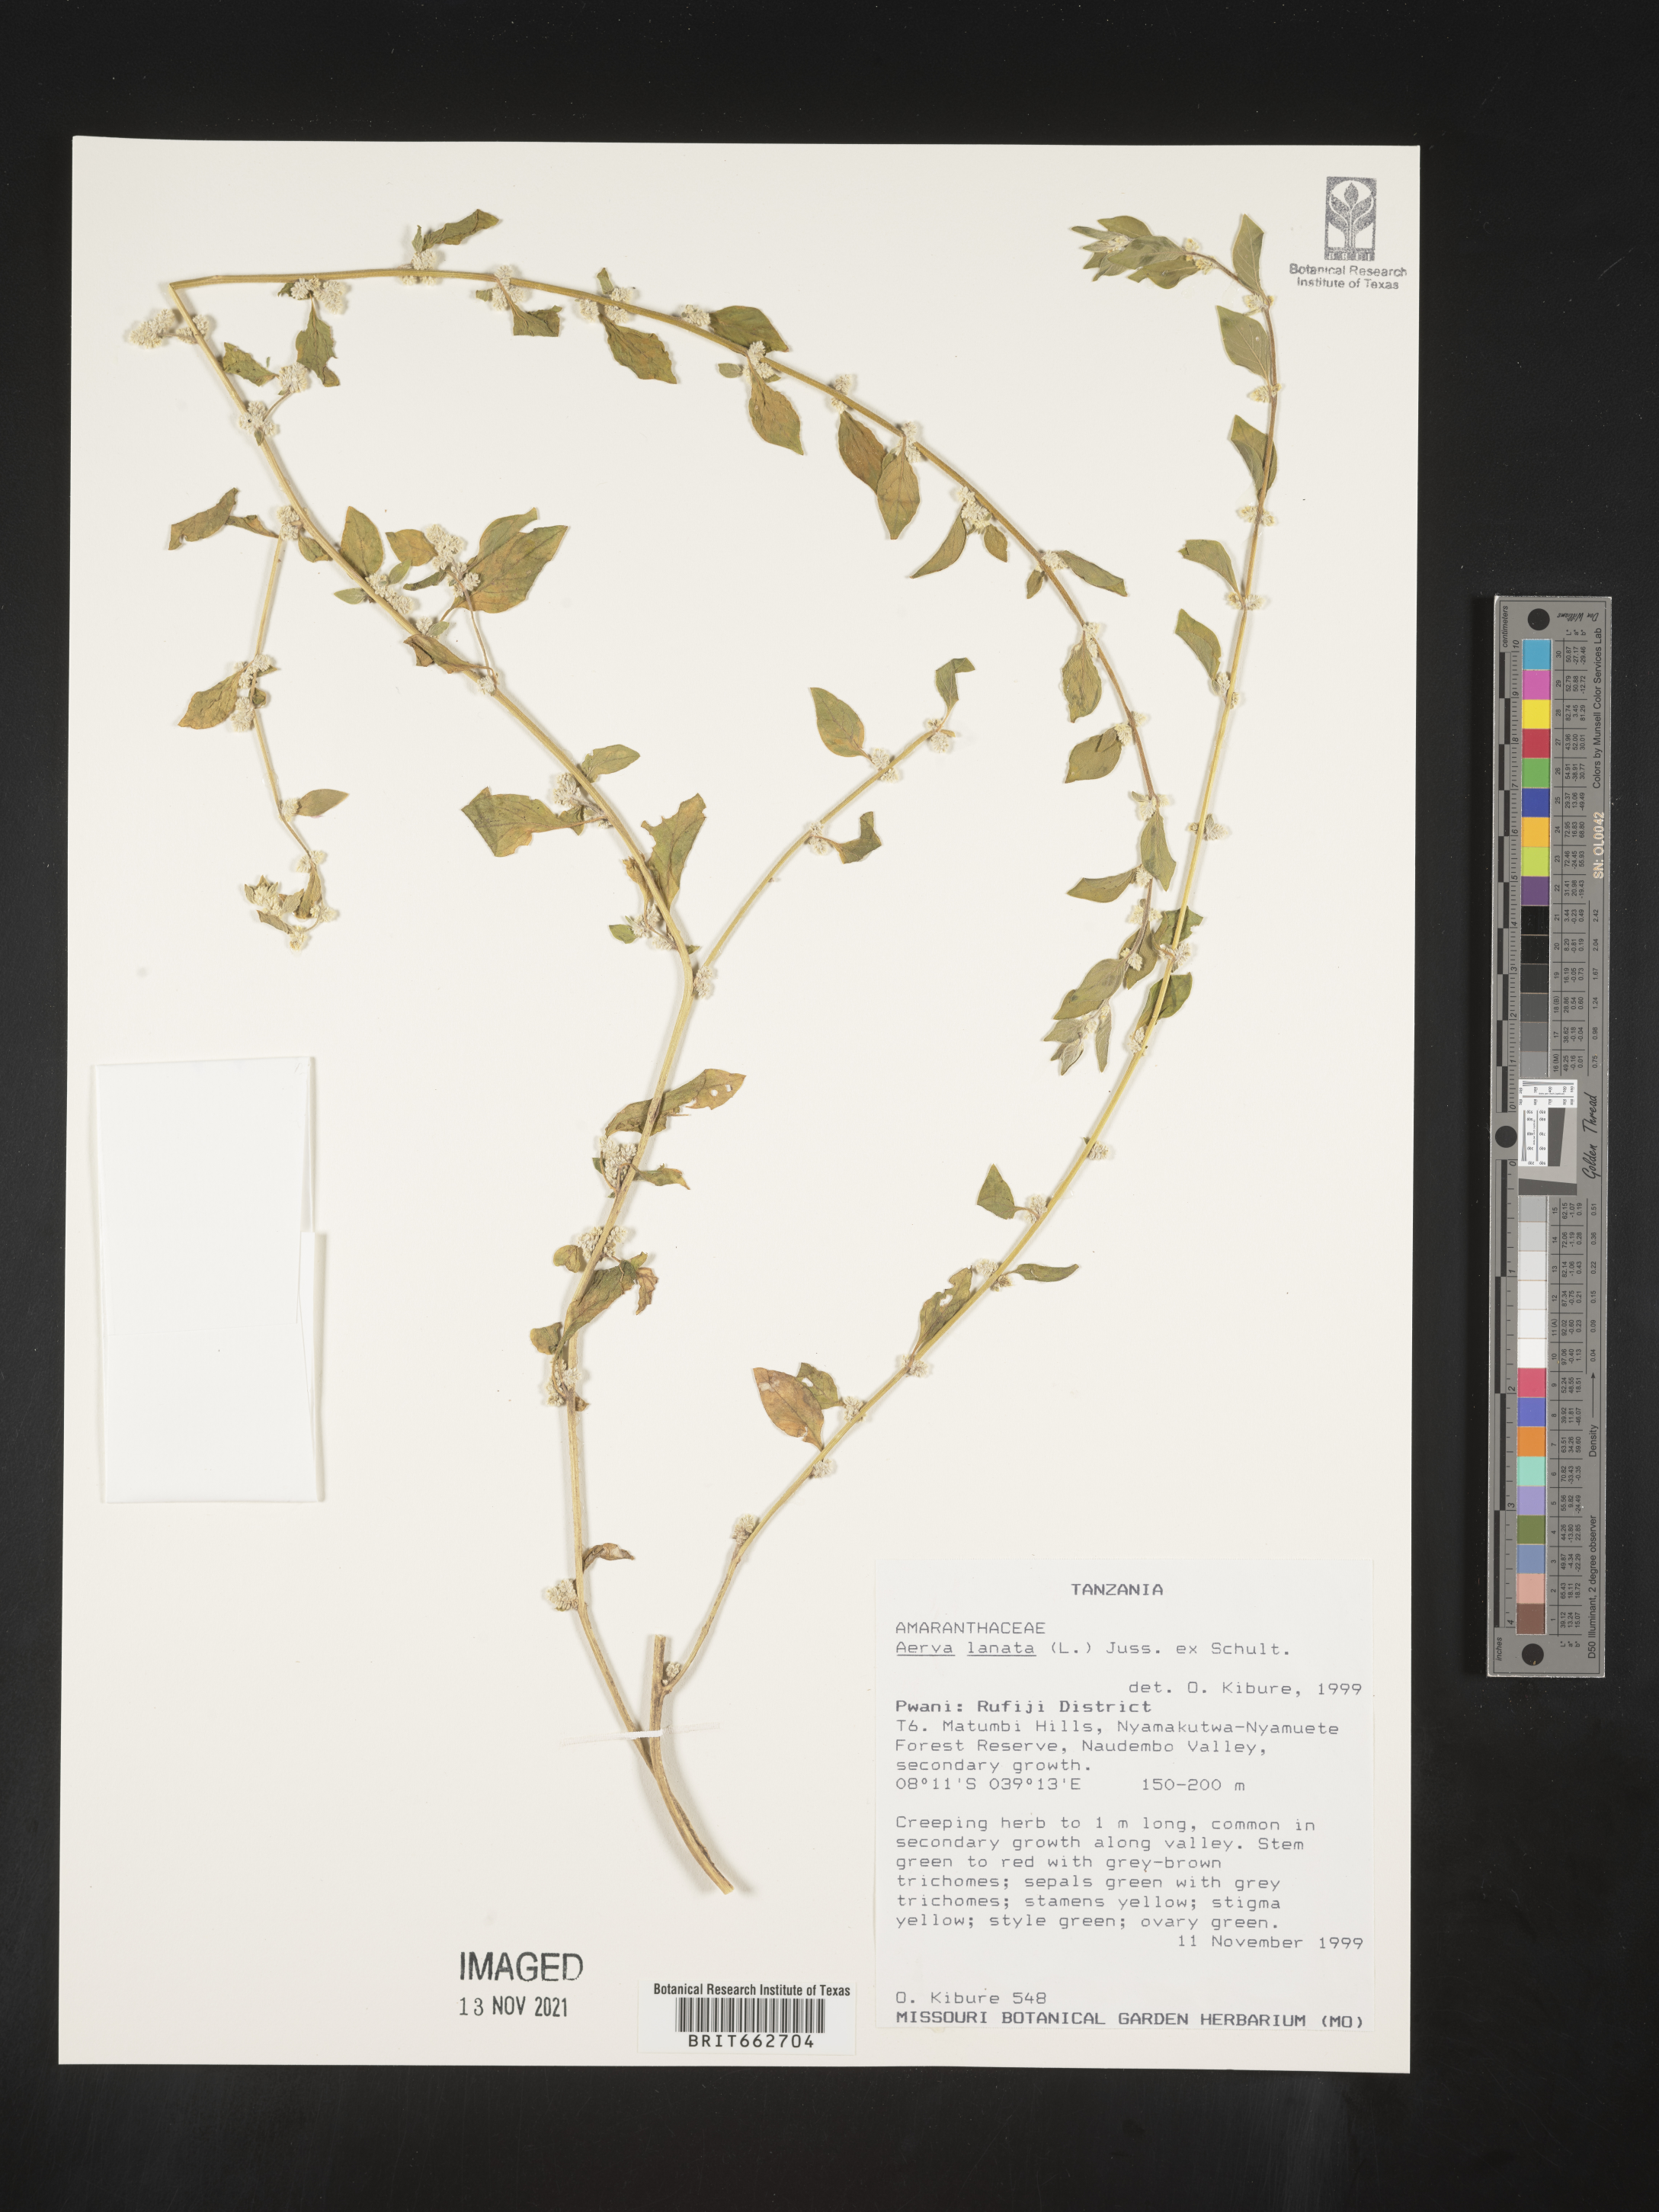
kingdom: Plantae
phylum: Tracheophyta
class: Magnoliopsida
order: Caryophyllales
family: Amaranthaceae
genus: Aerva
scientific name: Aerva
